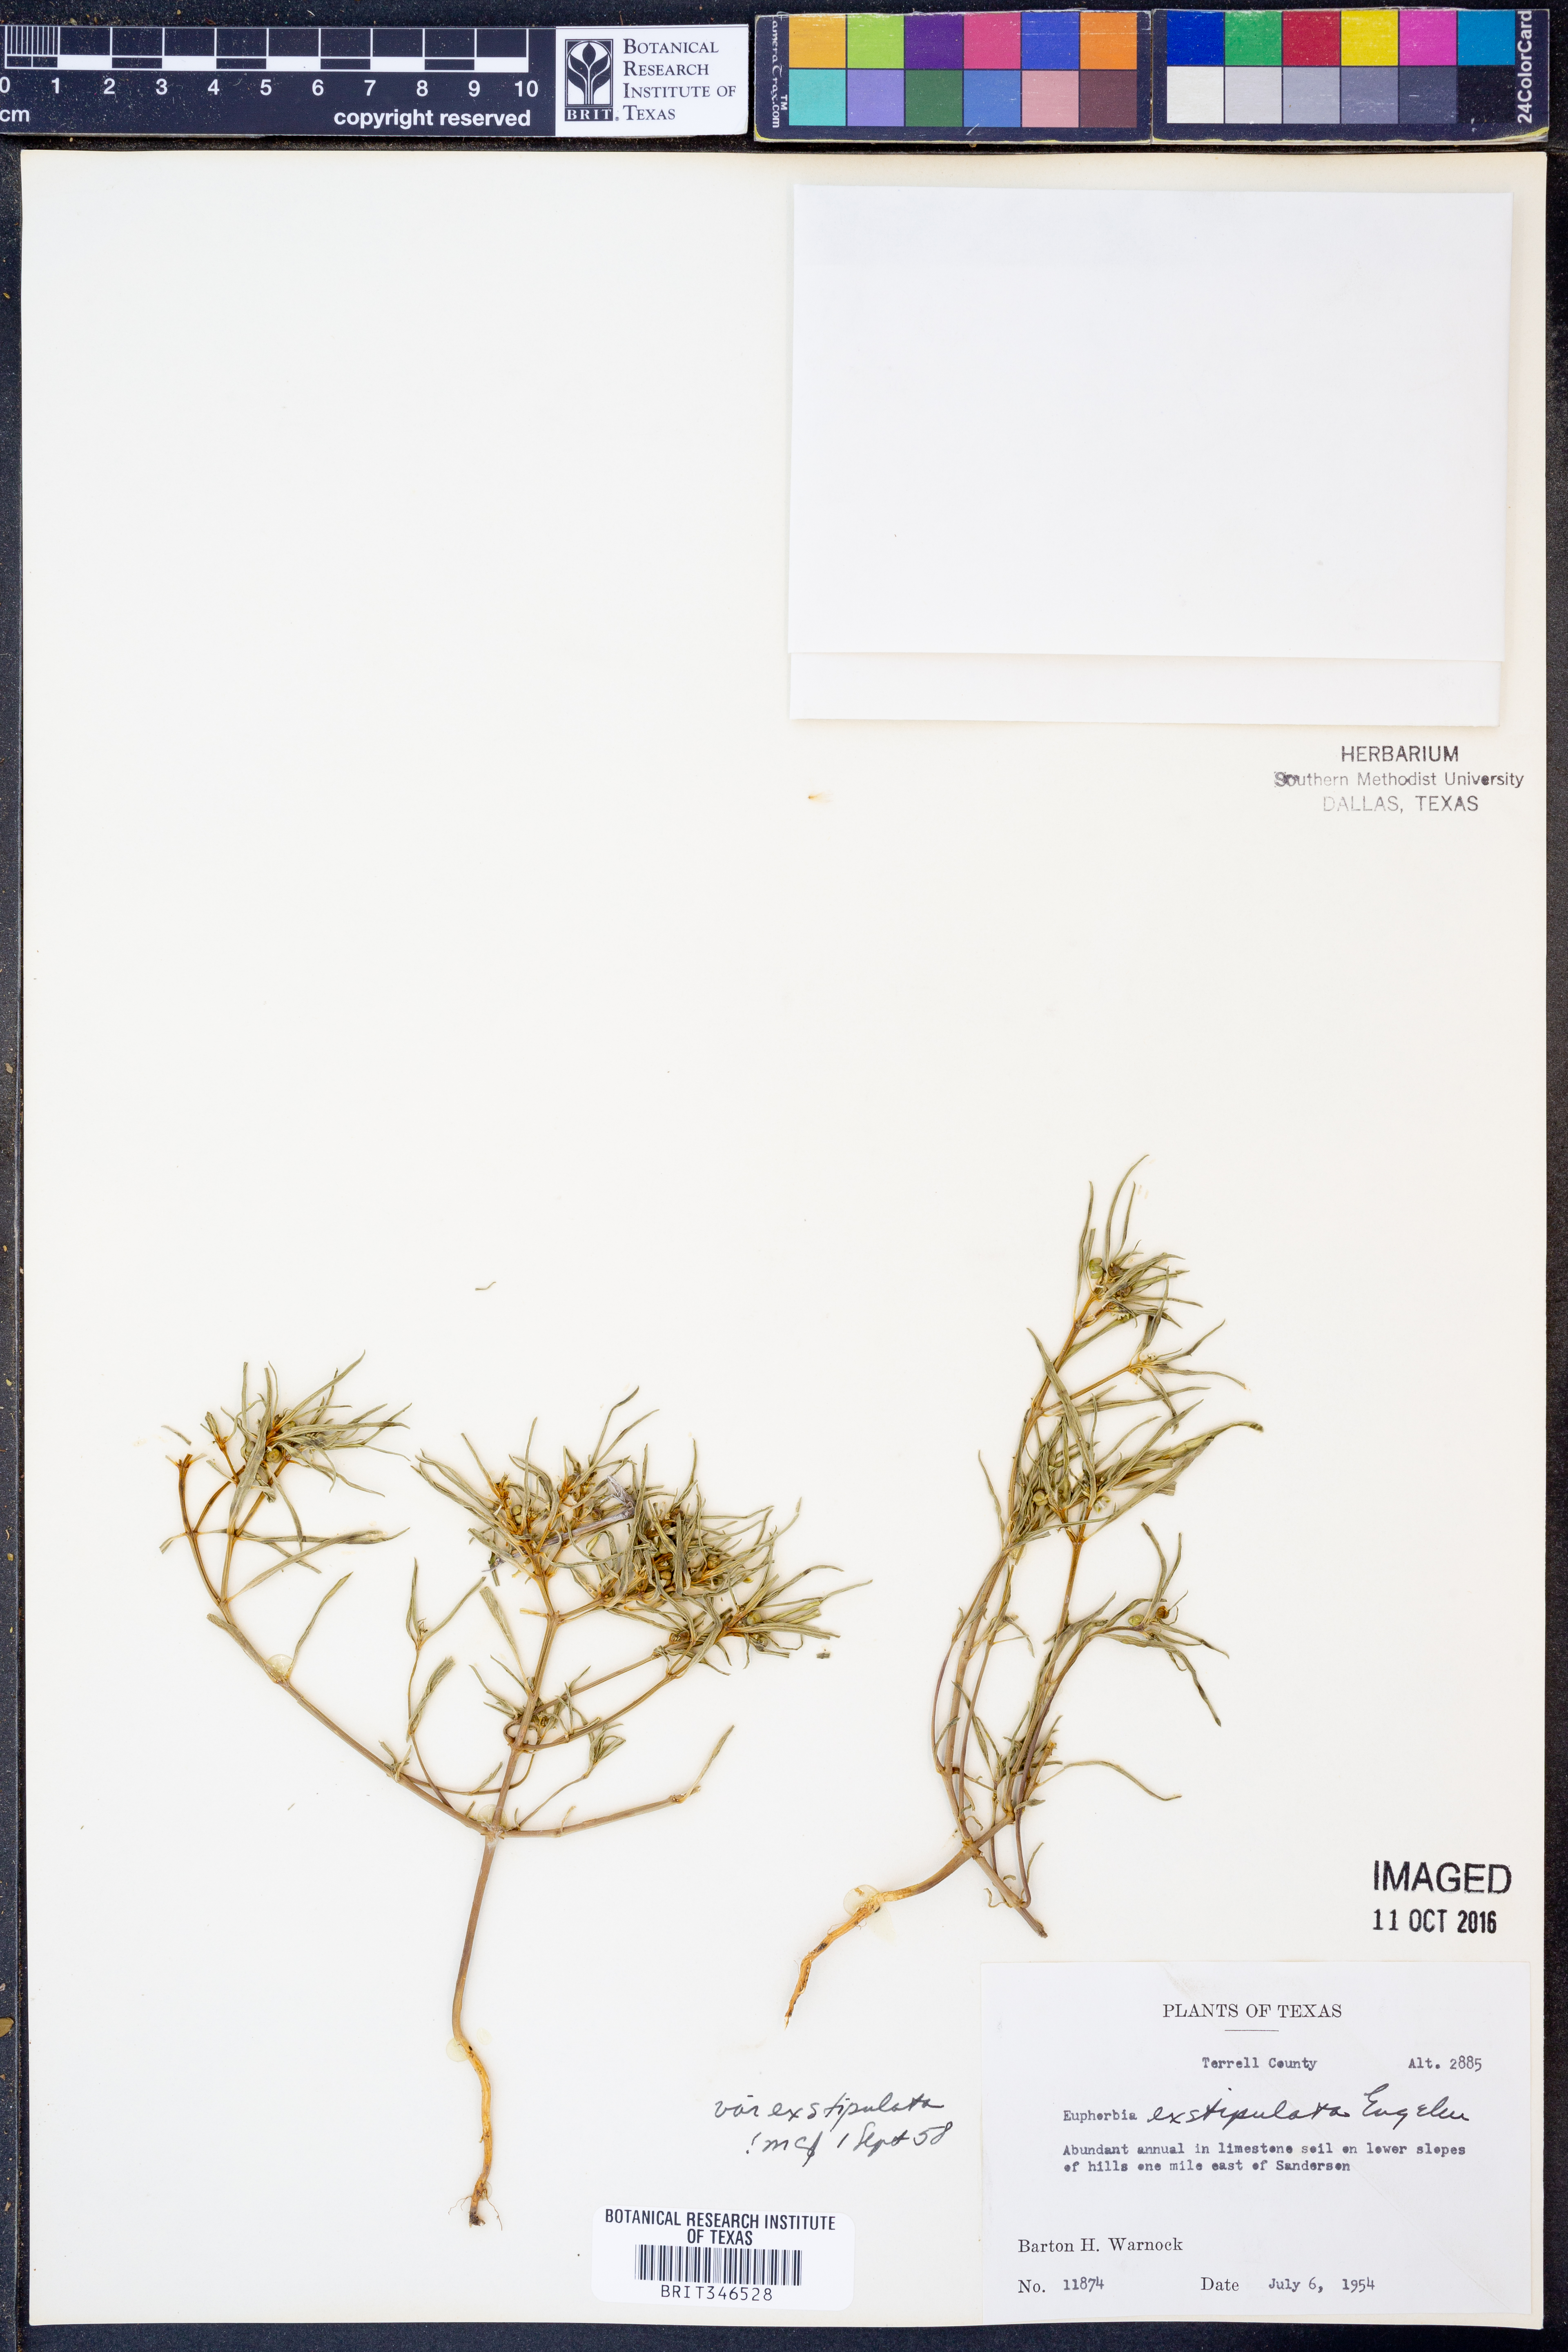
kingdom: Plantae
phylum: Tracheophyta
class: Magnoliopsida
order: Malpighiales
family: Euphorbiaceae
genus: Euphorbia
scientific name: Euphorbia exstipulata
